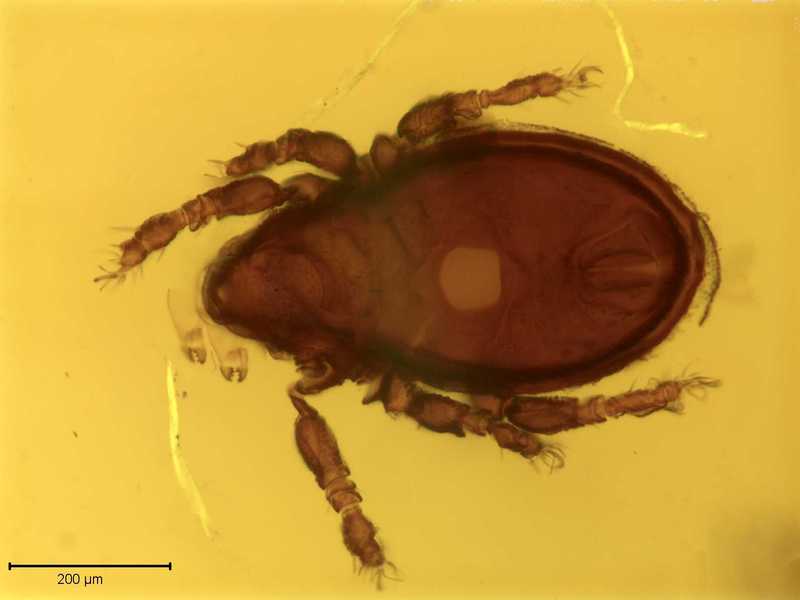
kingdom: Animalia
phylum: Arthropoda
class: Arachnida
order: Sarcoptiformes
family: Scutoverticidae
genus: Scutovertex
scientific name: Scutovertex alpinus
